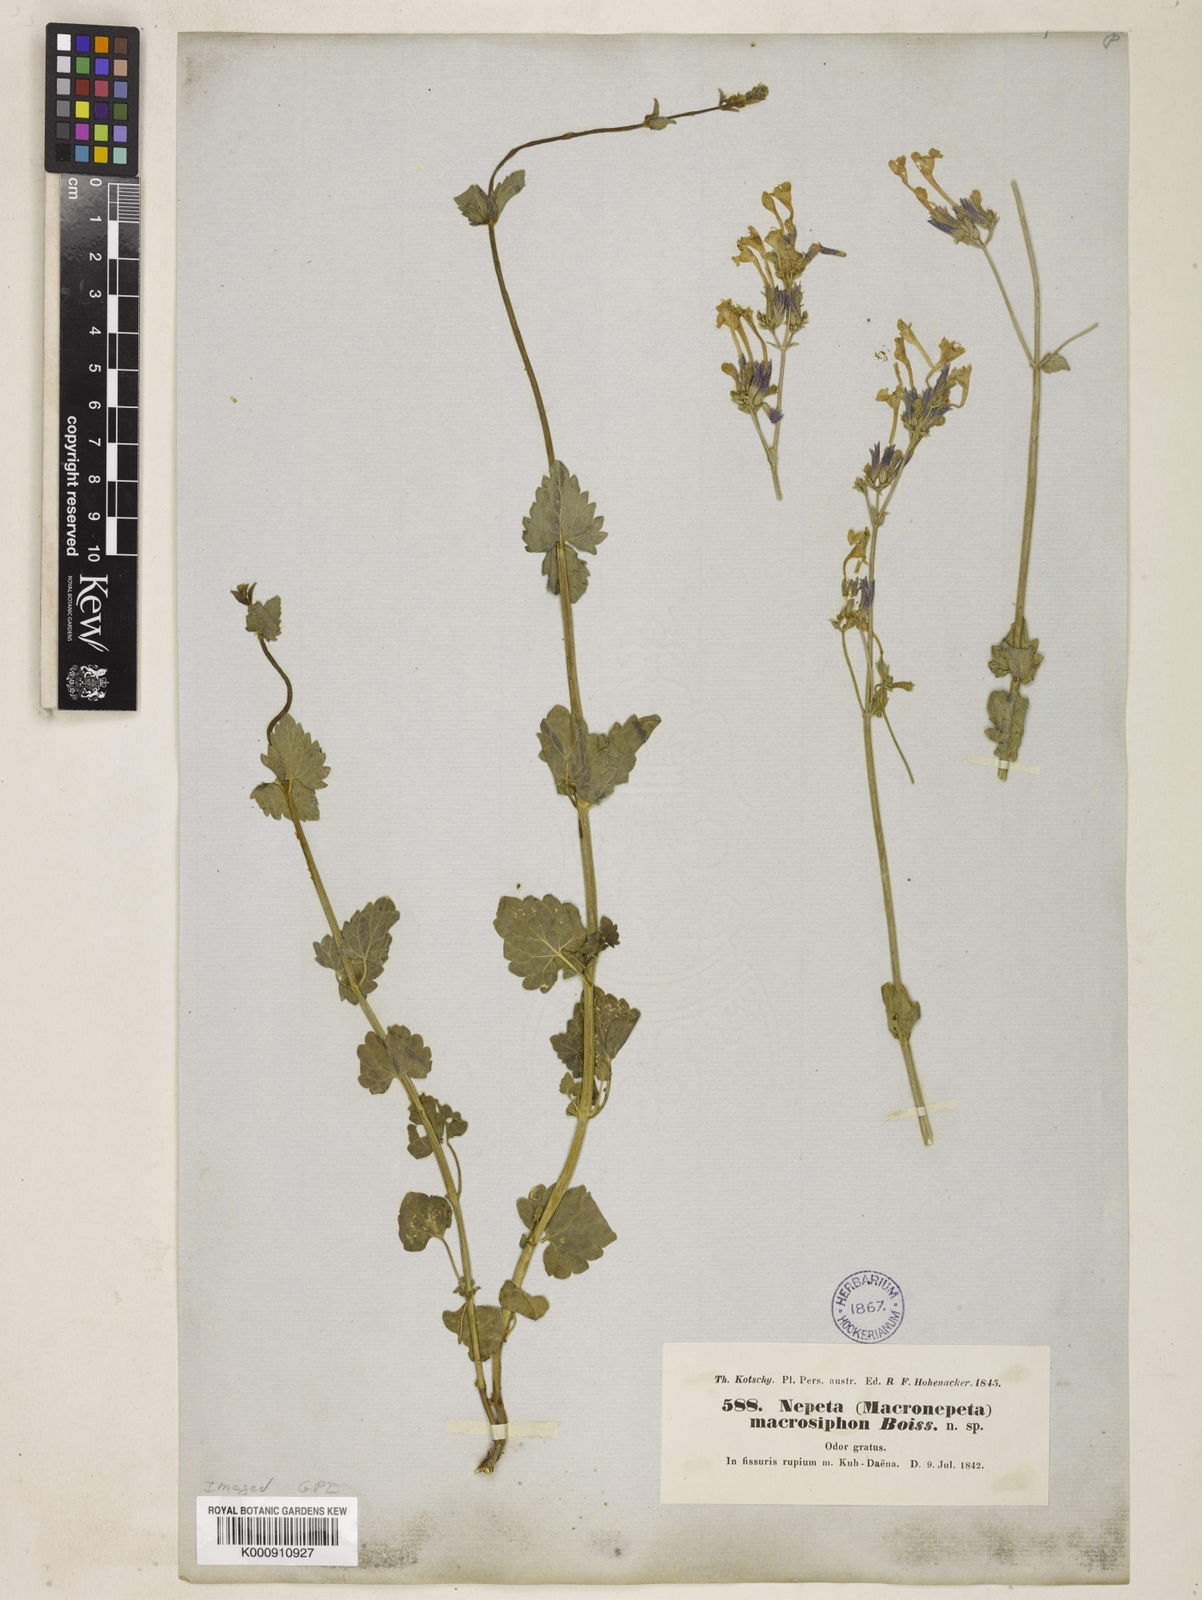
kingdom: Plantae
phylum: Tracheophyta
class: Magnoliopsida
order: Lamiales
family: Lamiaceae
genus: Nepeta
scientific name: Nepeta macrosiphon
